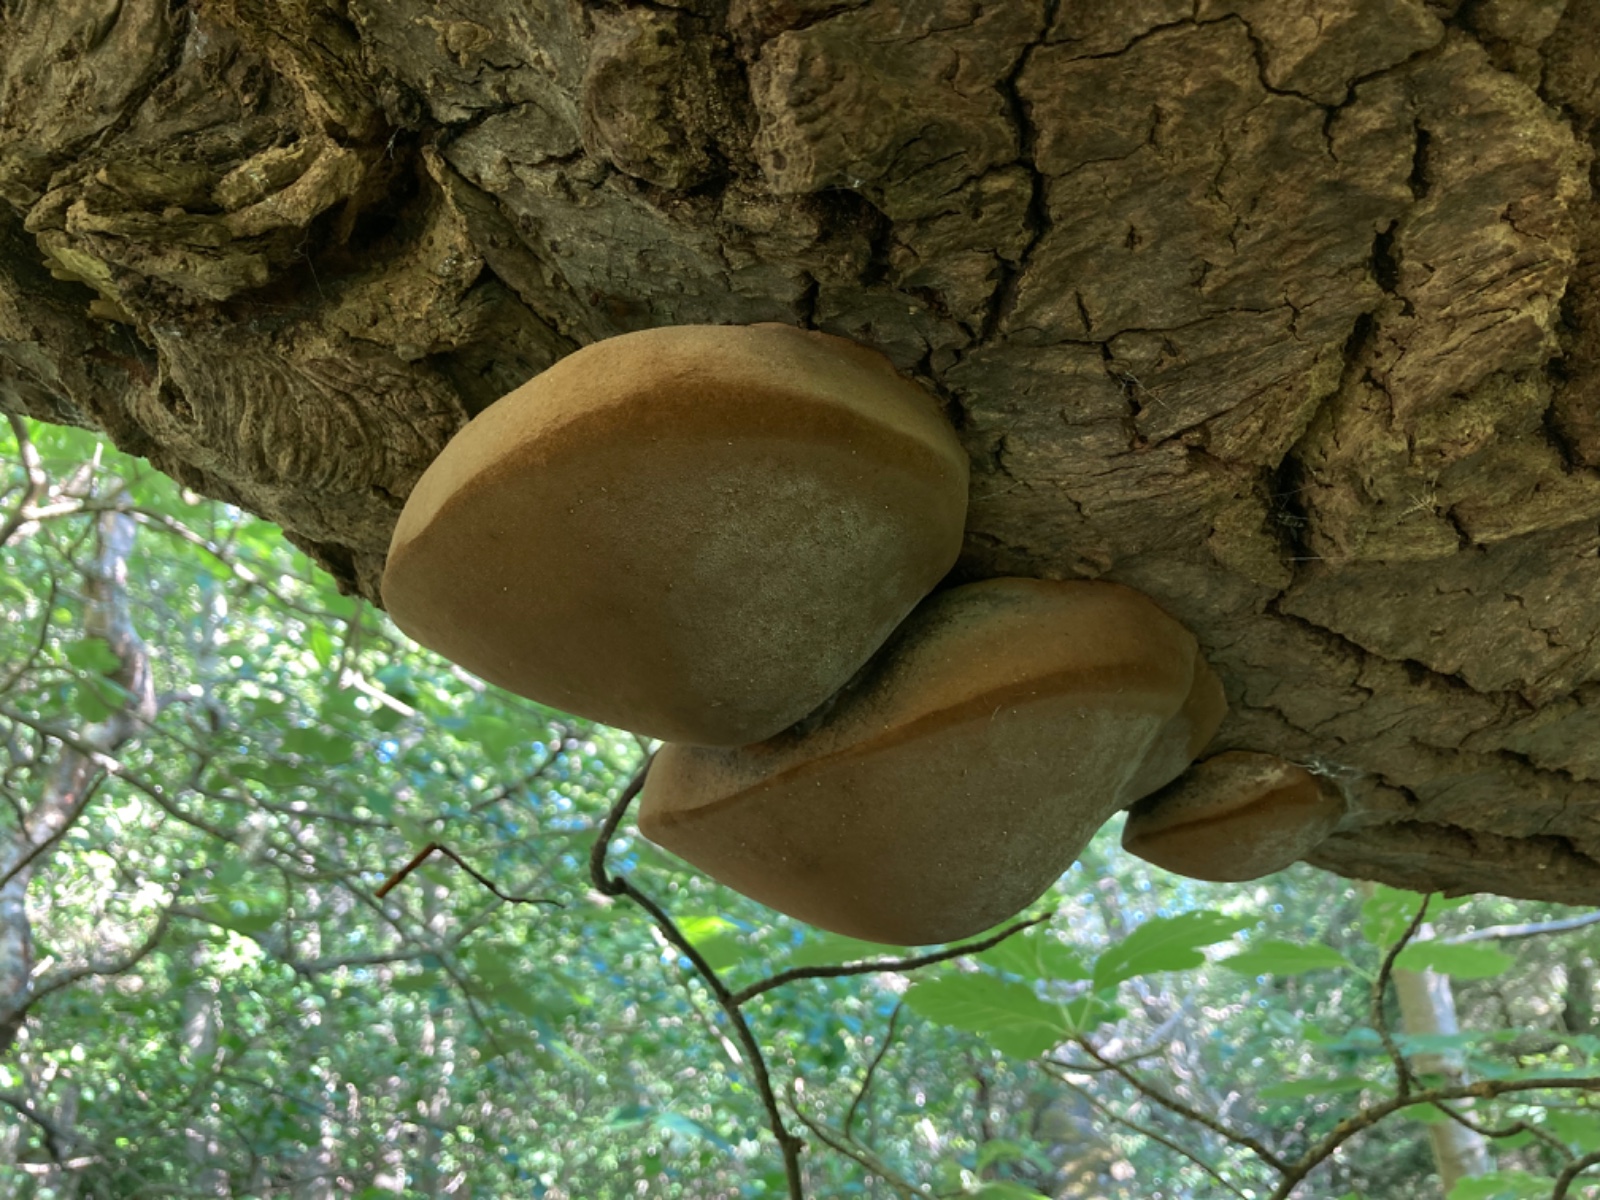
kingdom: Fungi
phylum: Basidiomycota
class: Agaricomycetes
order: Hymenochaetales
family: Hymenochaetaceae
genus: Phellinus
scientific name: Phellinus populicola
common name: poppel-ildporesvamp
